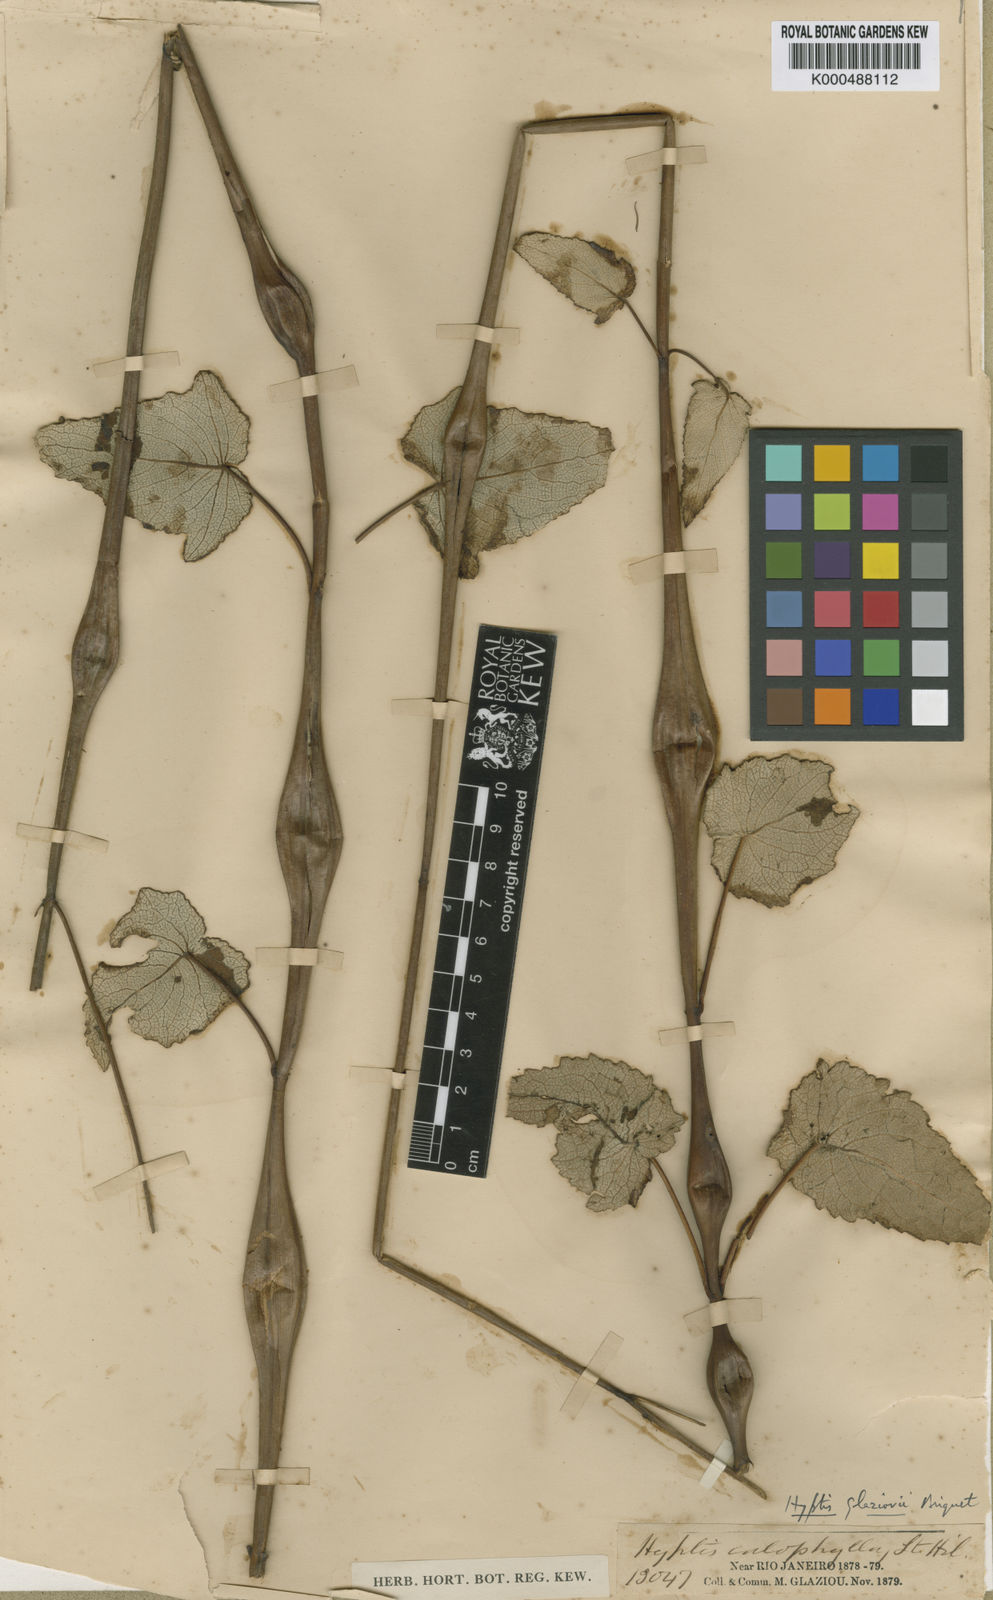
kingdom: Plantae
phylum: Tracheophyta
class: Magnoliopsida
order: Lamiales
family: Lamiaceae
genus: Eriope
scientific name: Eriope
